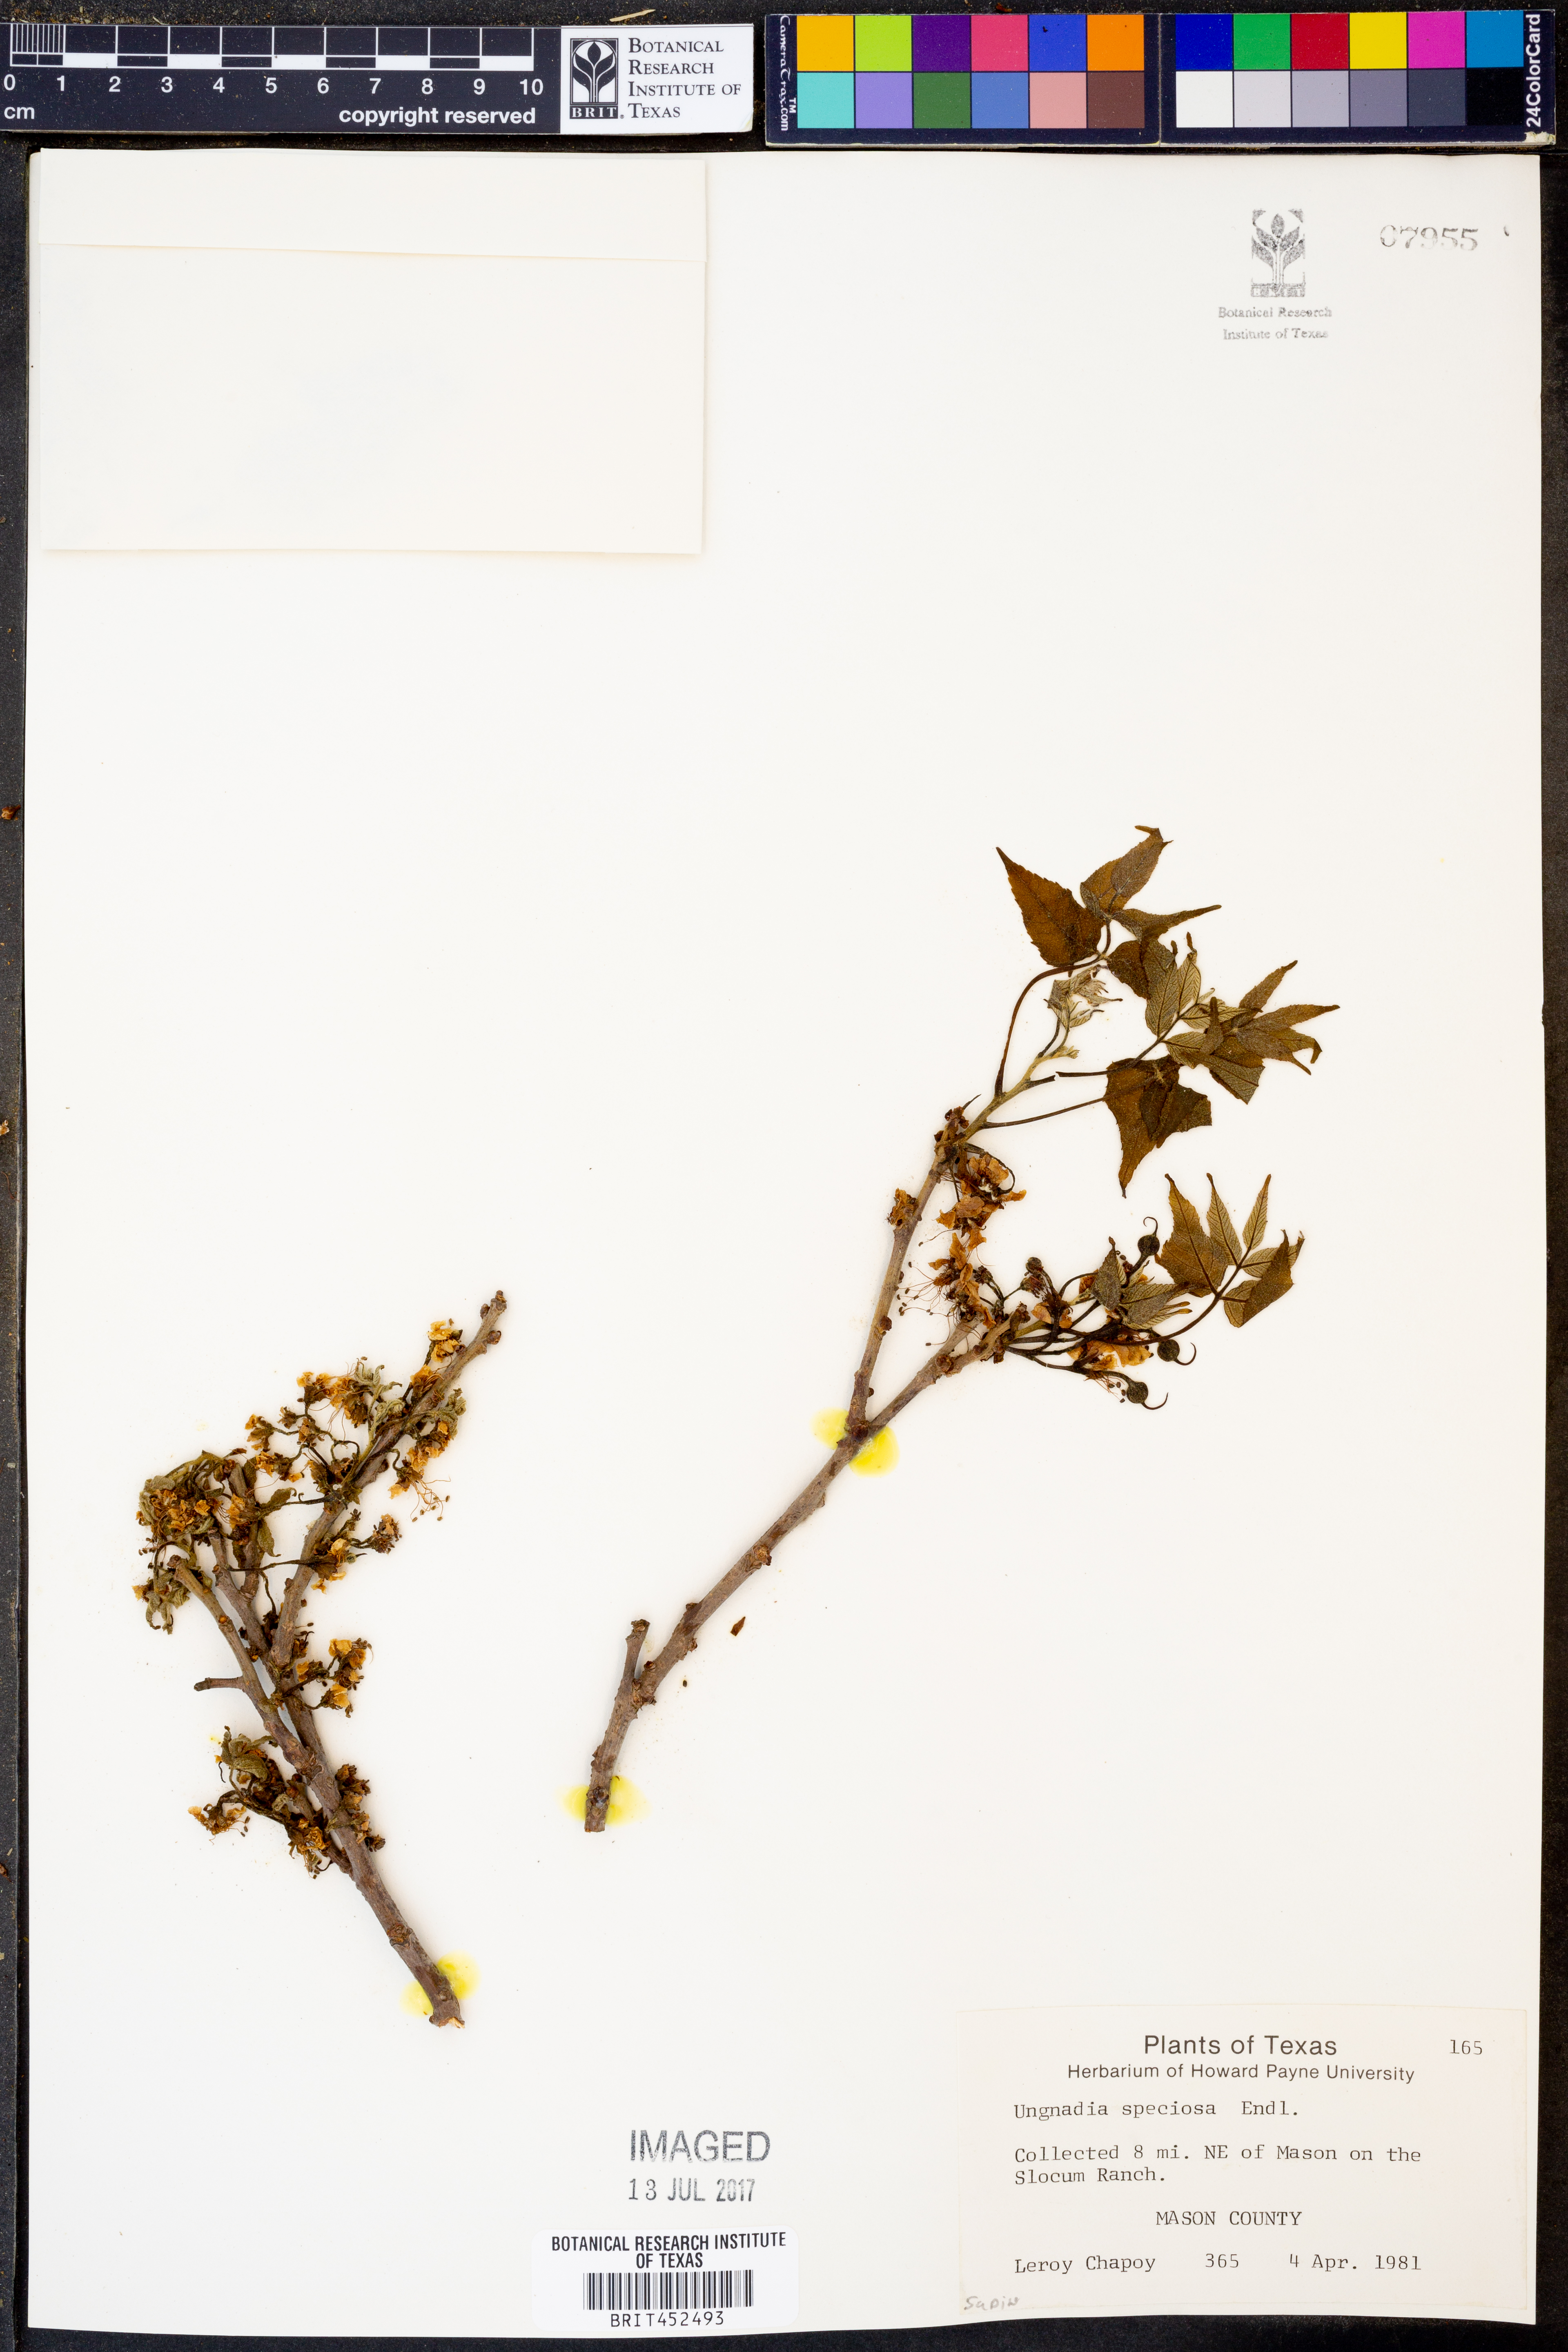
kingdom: Plantae
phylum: Tracheophyta
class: Magnoliopsida
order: Sapindales
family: Sapindaceae
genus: Ungnadia
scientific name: Ungnadia speciosa
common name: Texas-buckeye
